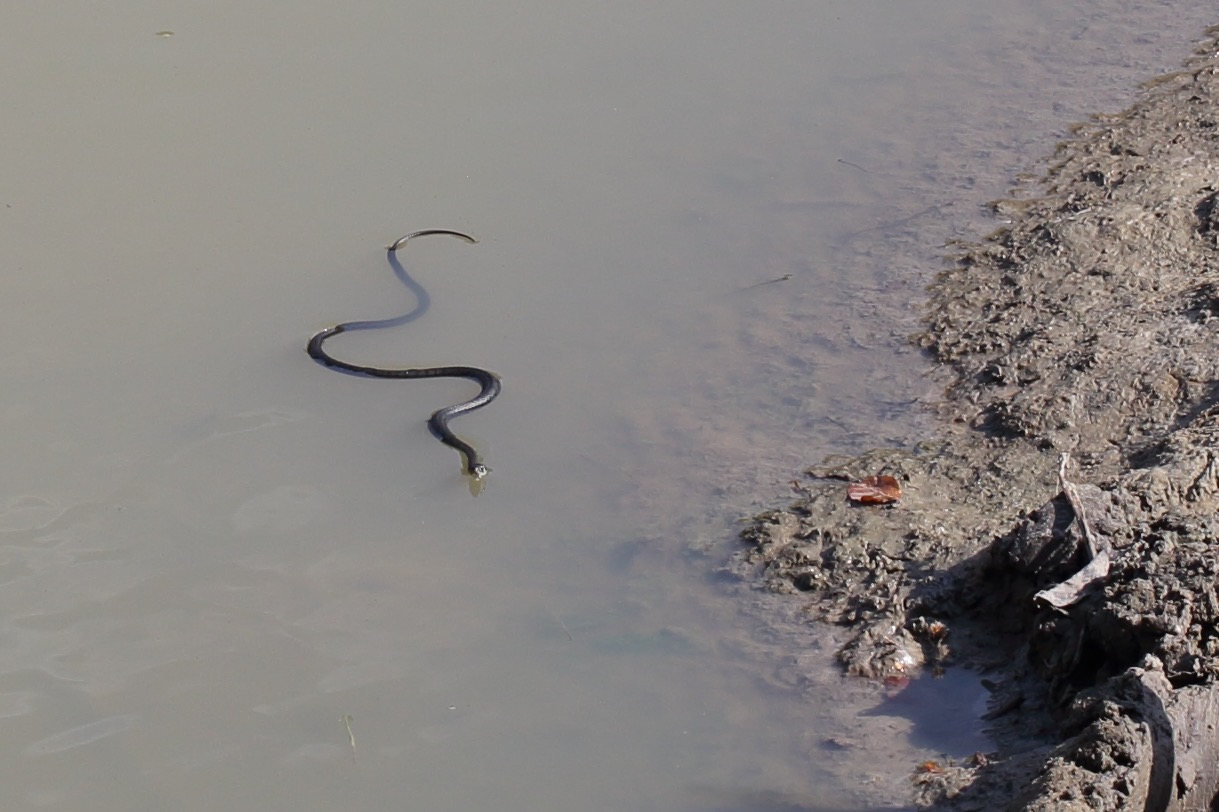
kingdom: Animalia
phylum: Chordata
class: Squamata
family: Colubridae
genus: Natrix
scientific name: Natrix natrix
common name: Snog
